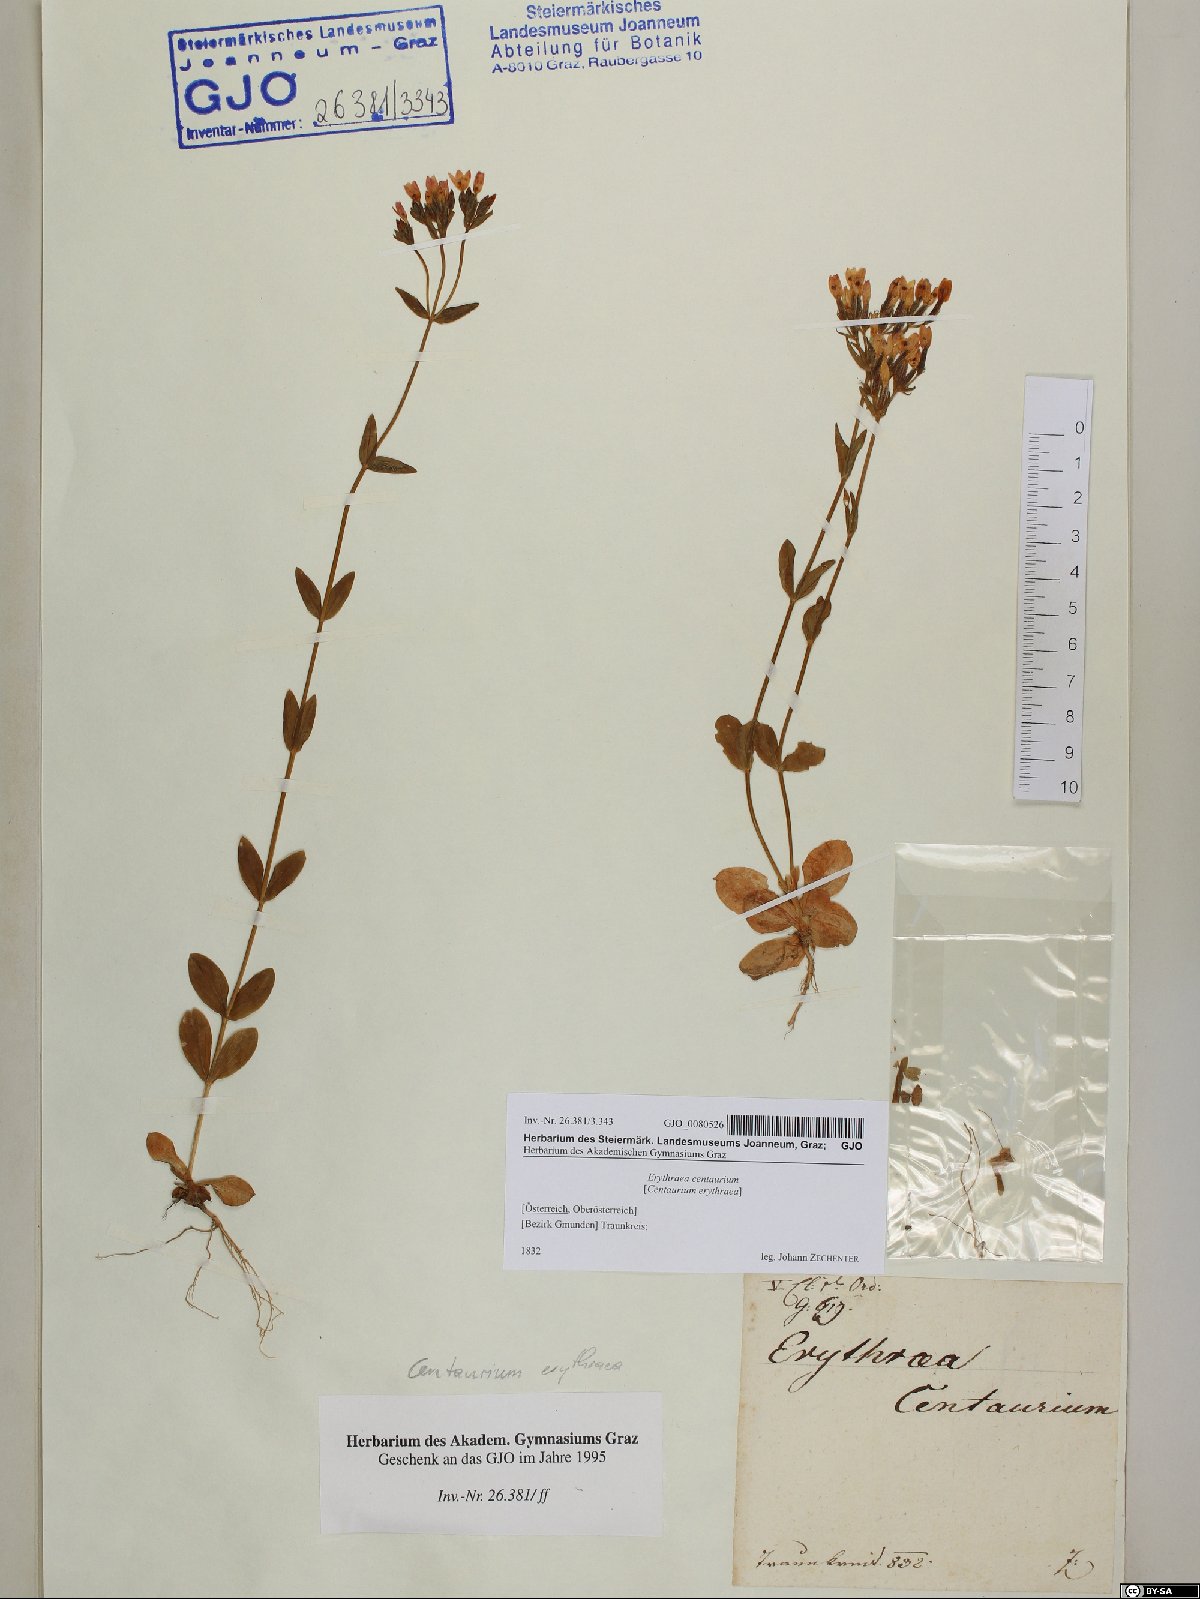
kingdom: Plantae
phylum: Tracheophyta
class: Magnoliopsida
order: Gentianales
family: Gentianaceae
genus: Centaurium
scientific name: Centaurium erythraea
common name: Common centaury
